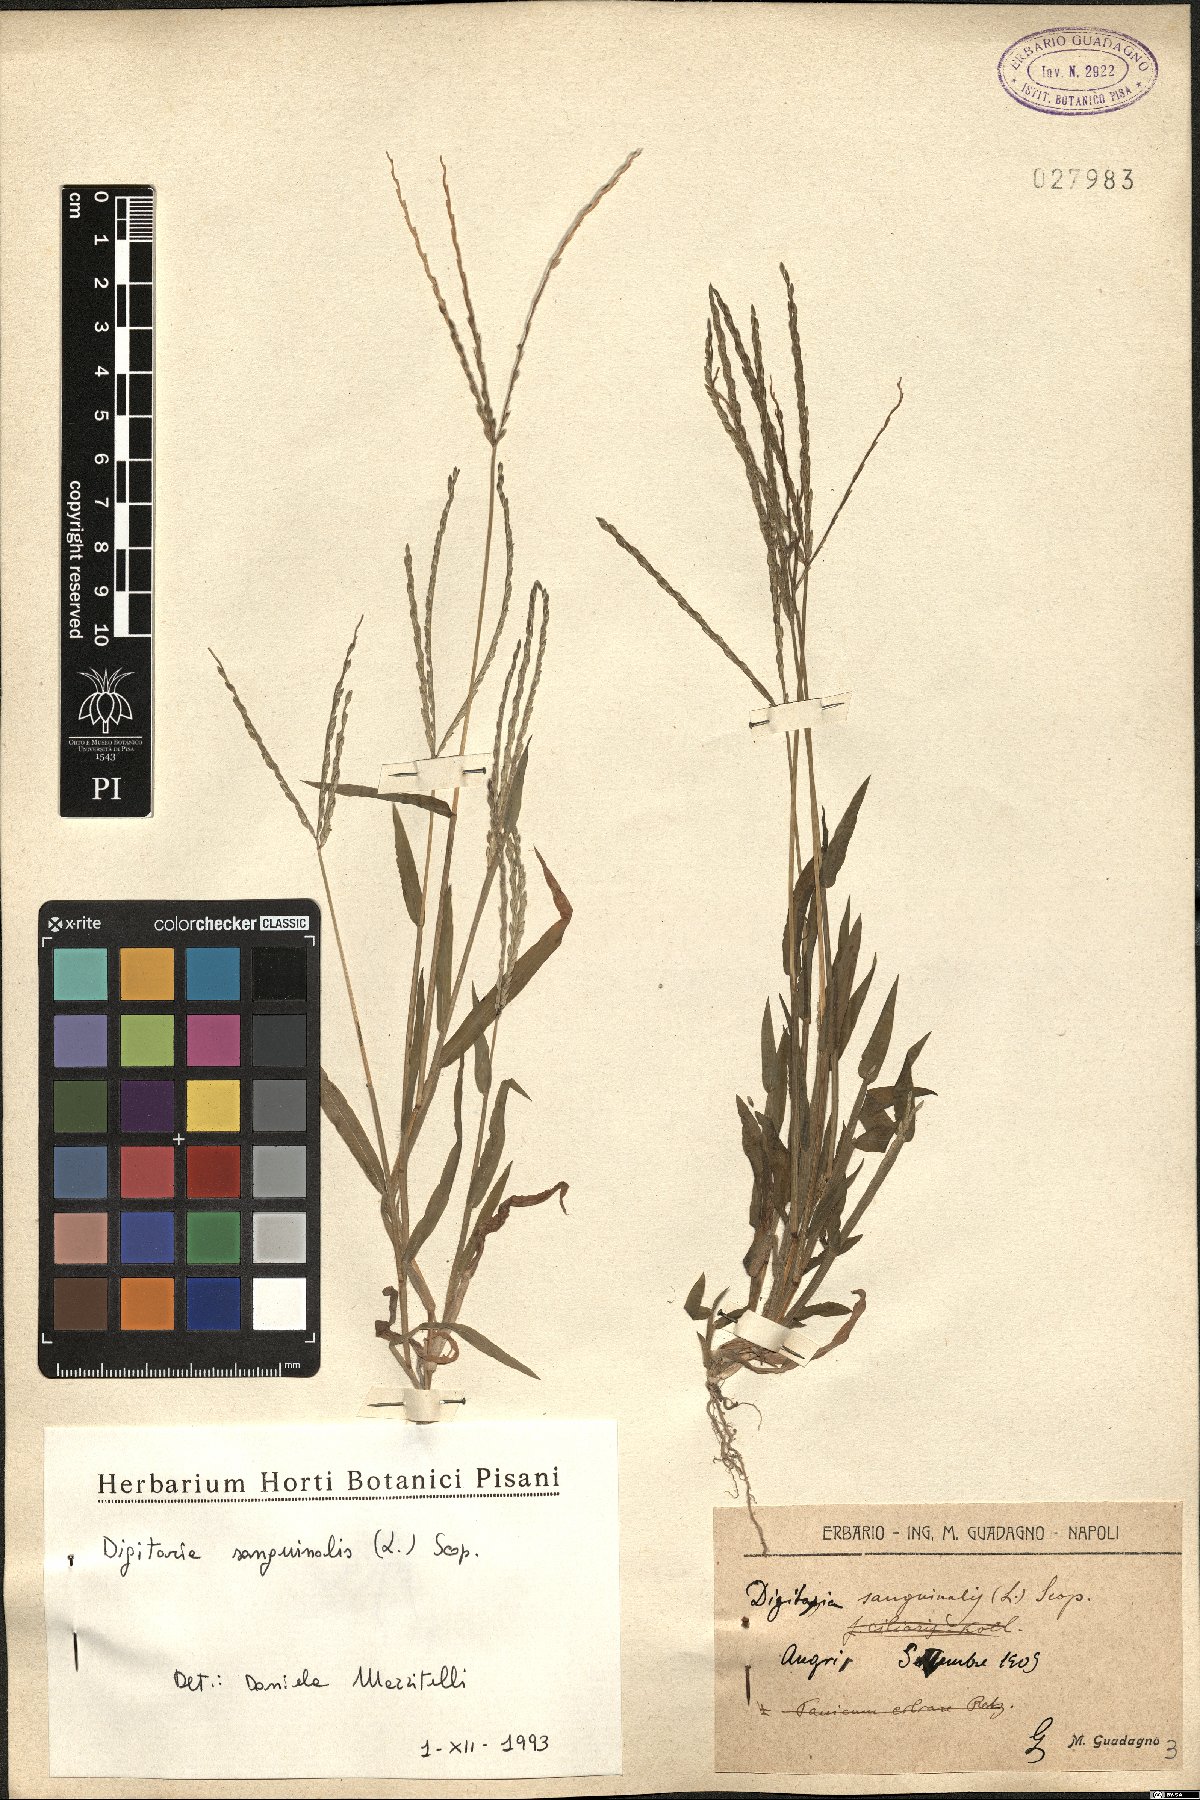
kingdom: Plantae
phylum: Tracheophyta
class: Liliopsida
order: Poales
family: Poaceae
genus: Digitaria
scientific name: Digitaria sanguinalis
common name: Hairy crabgrass
